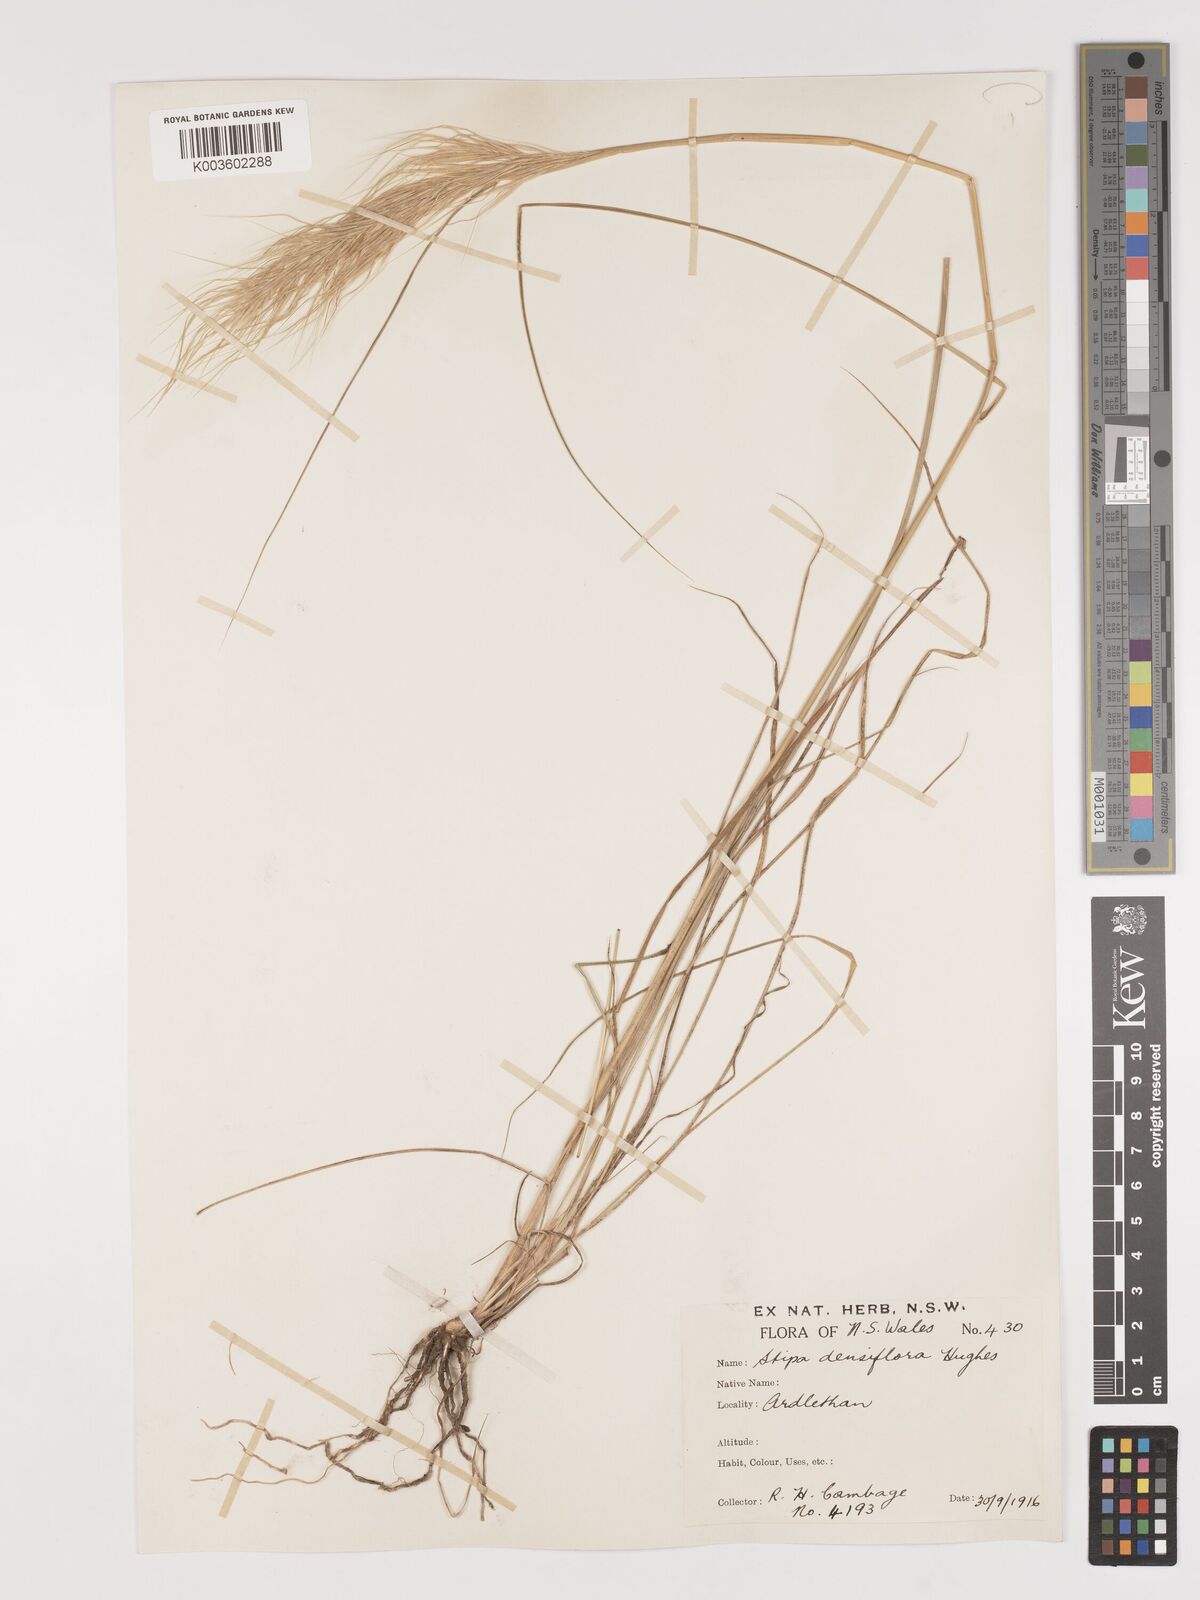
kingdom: Plantae
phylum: Tracheophyta
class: Liliopsida
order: Poales
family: Poaceae
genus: Stipa
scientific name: Stipa
